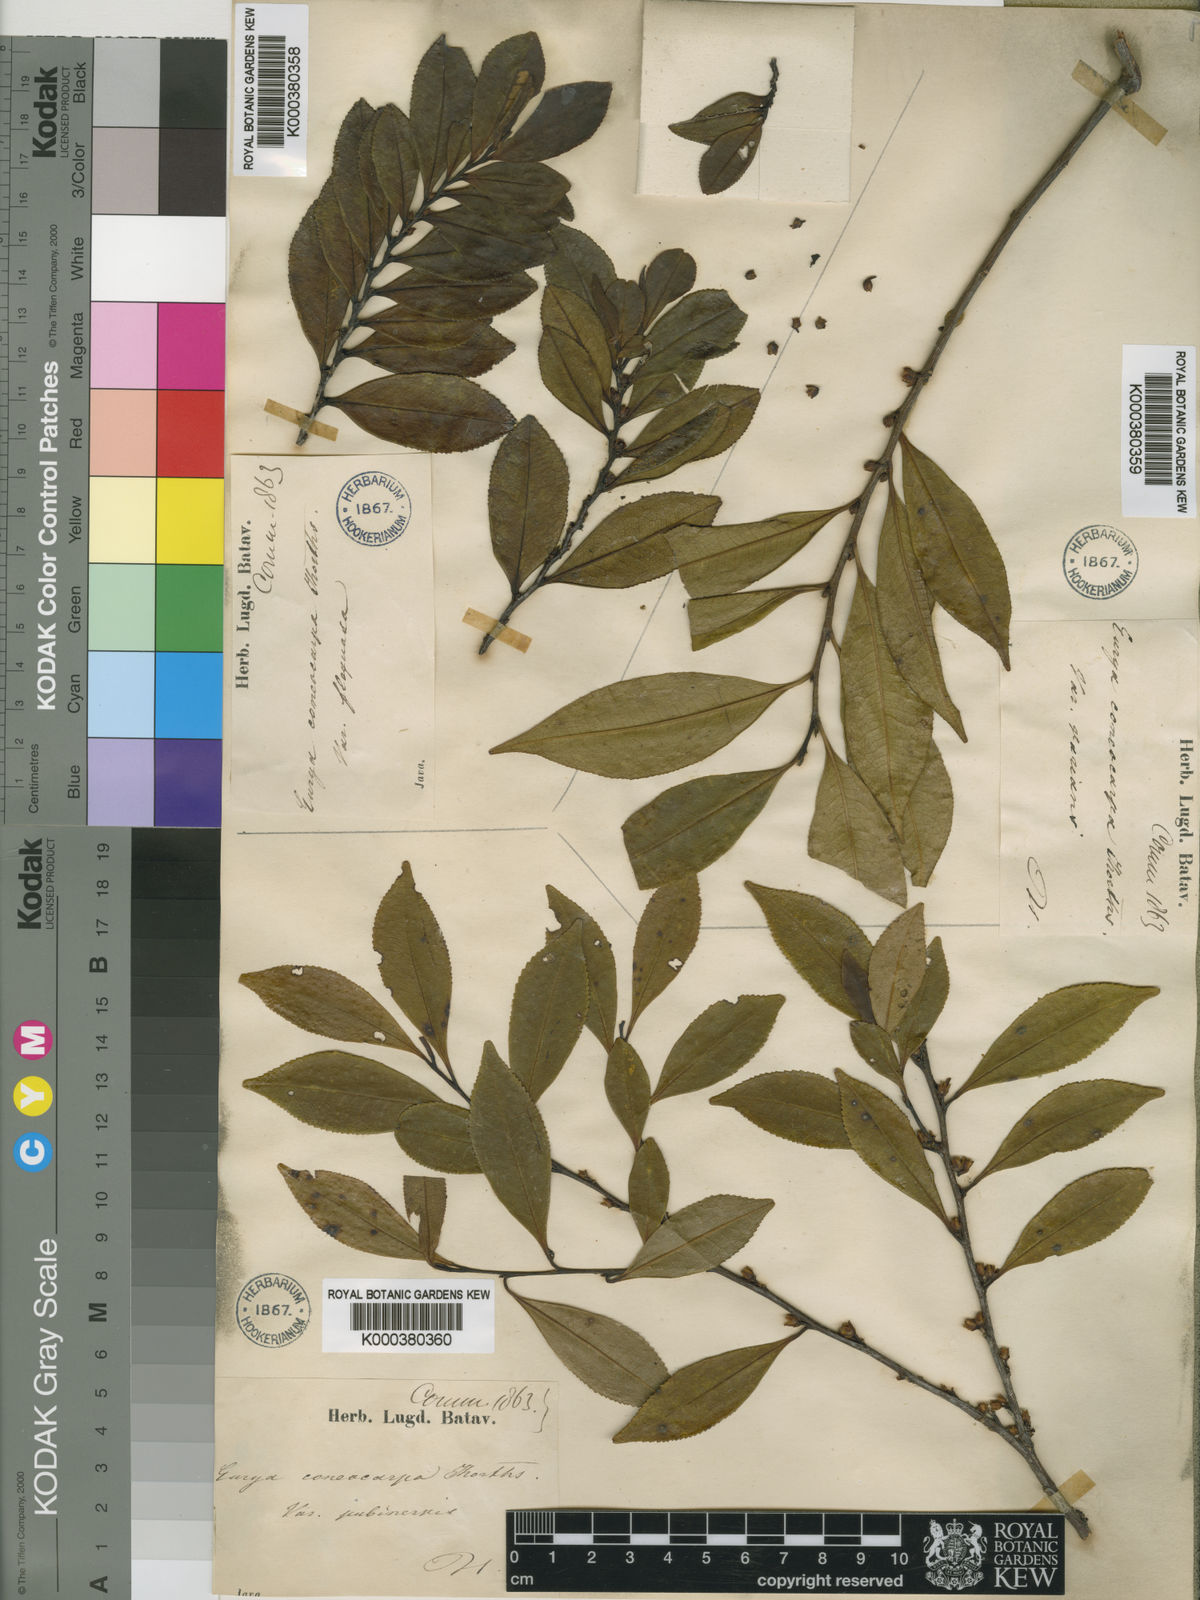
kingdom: Plantae
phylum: Tracheophyta
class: Magnoliopsida
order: Ericales
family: Pentaphylacaceae
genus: Eurya
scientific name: Eurya obovata
